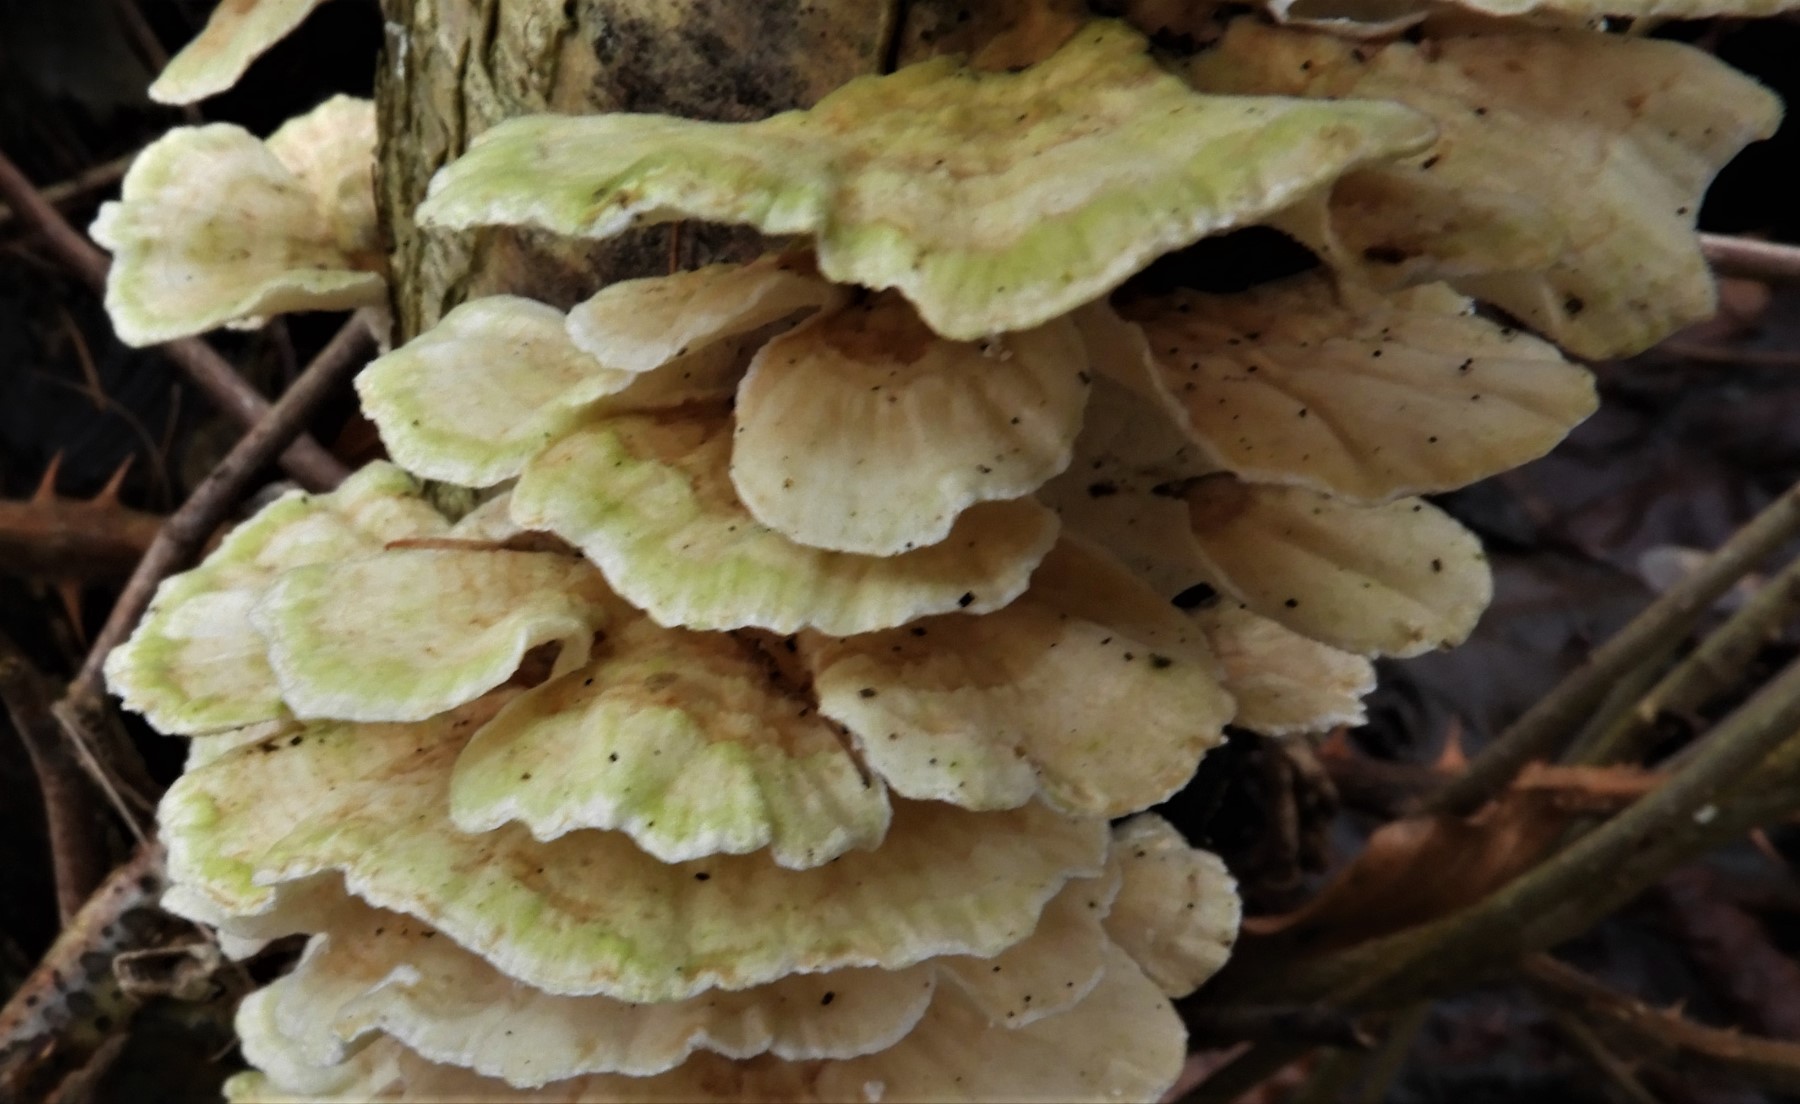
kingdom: Fungi
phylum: Basidiomycota
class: Agaricomycetes
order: Polyporales
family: Polyporaceae
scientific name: Polyporaceae
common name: poresvampfamilien
